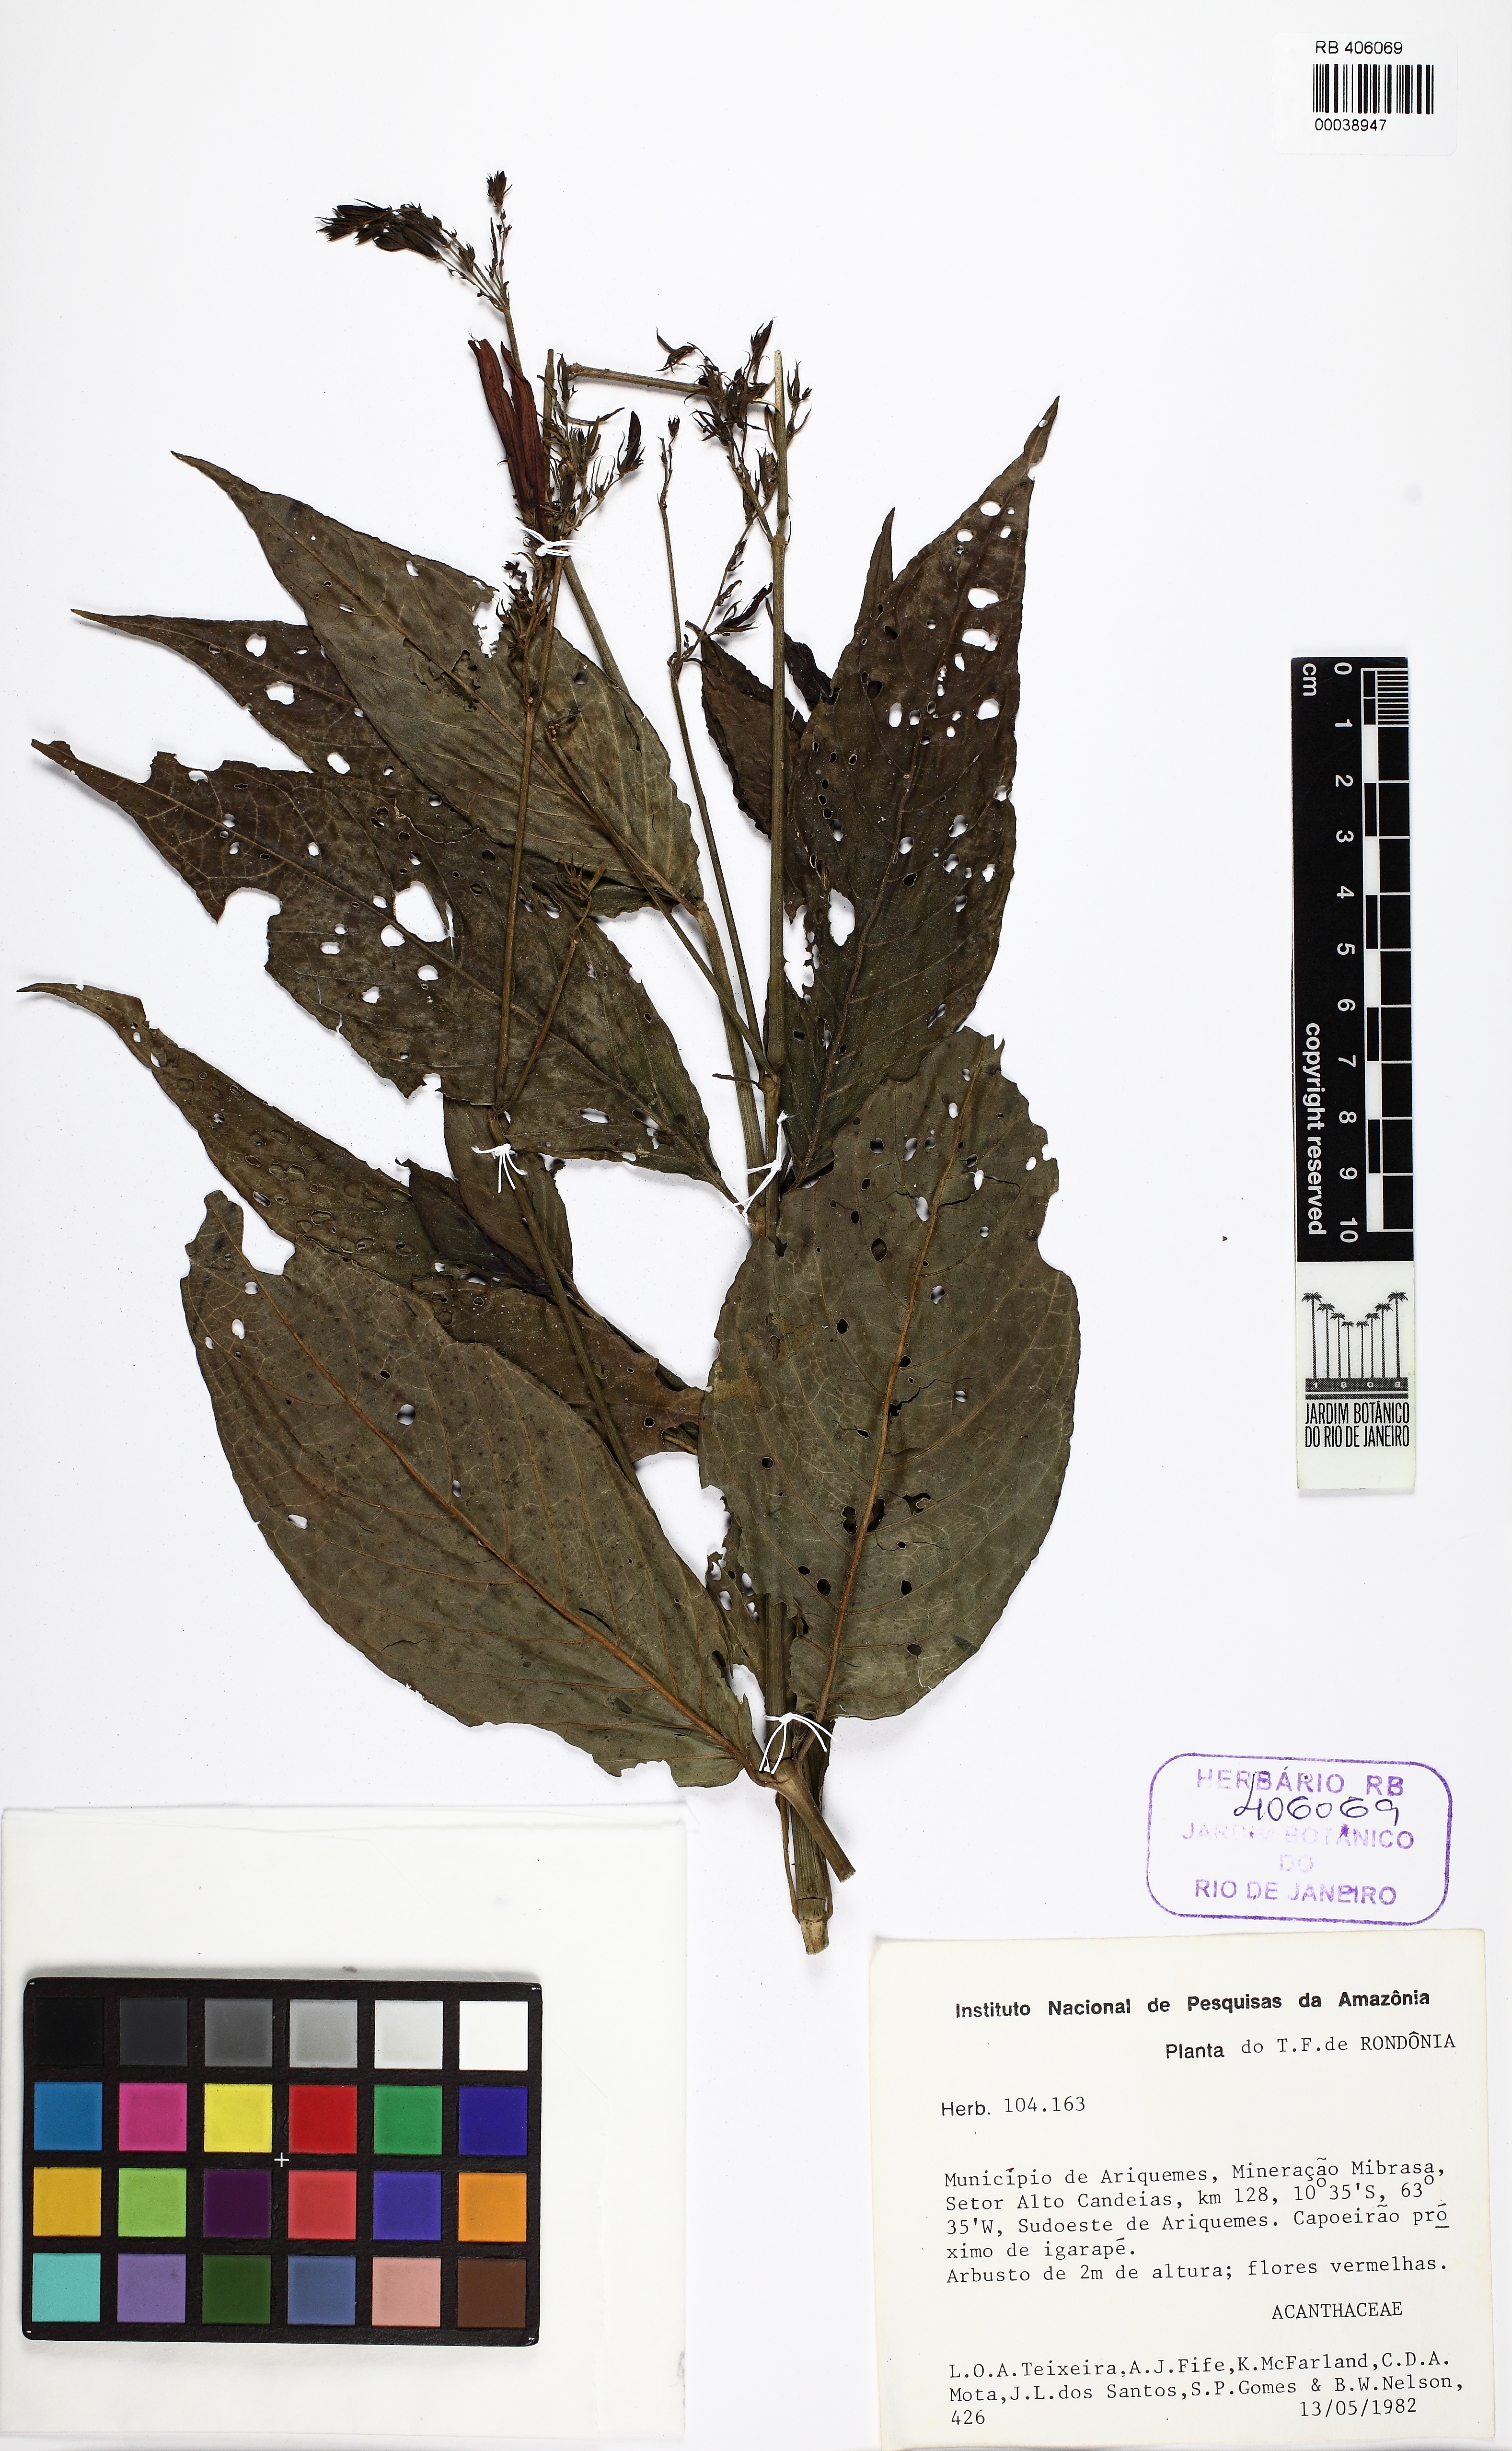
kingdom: Plantae
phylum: Tracheophyta
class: Magnoliopsida
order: Lamiales
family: Acanthaceae
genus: Dianthera
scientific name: Dianthera calycina
